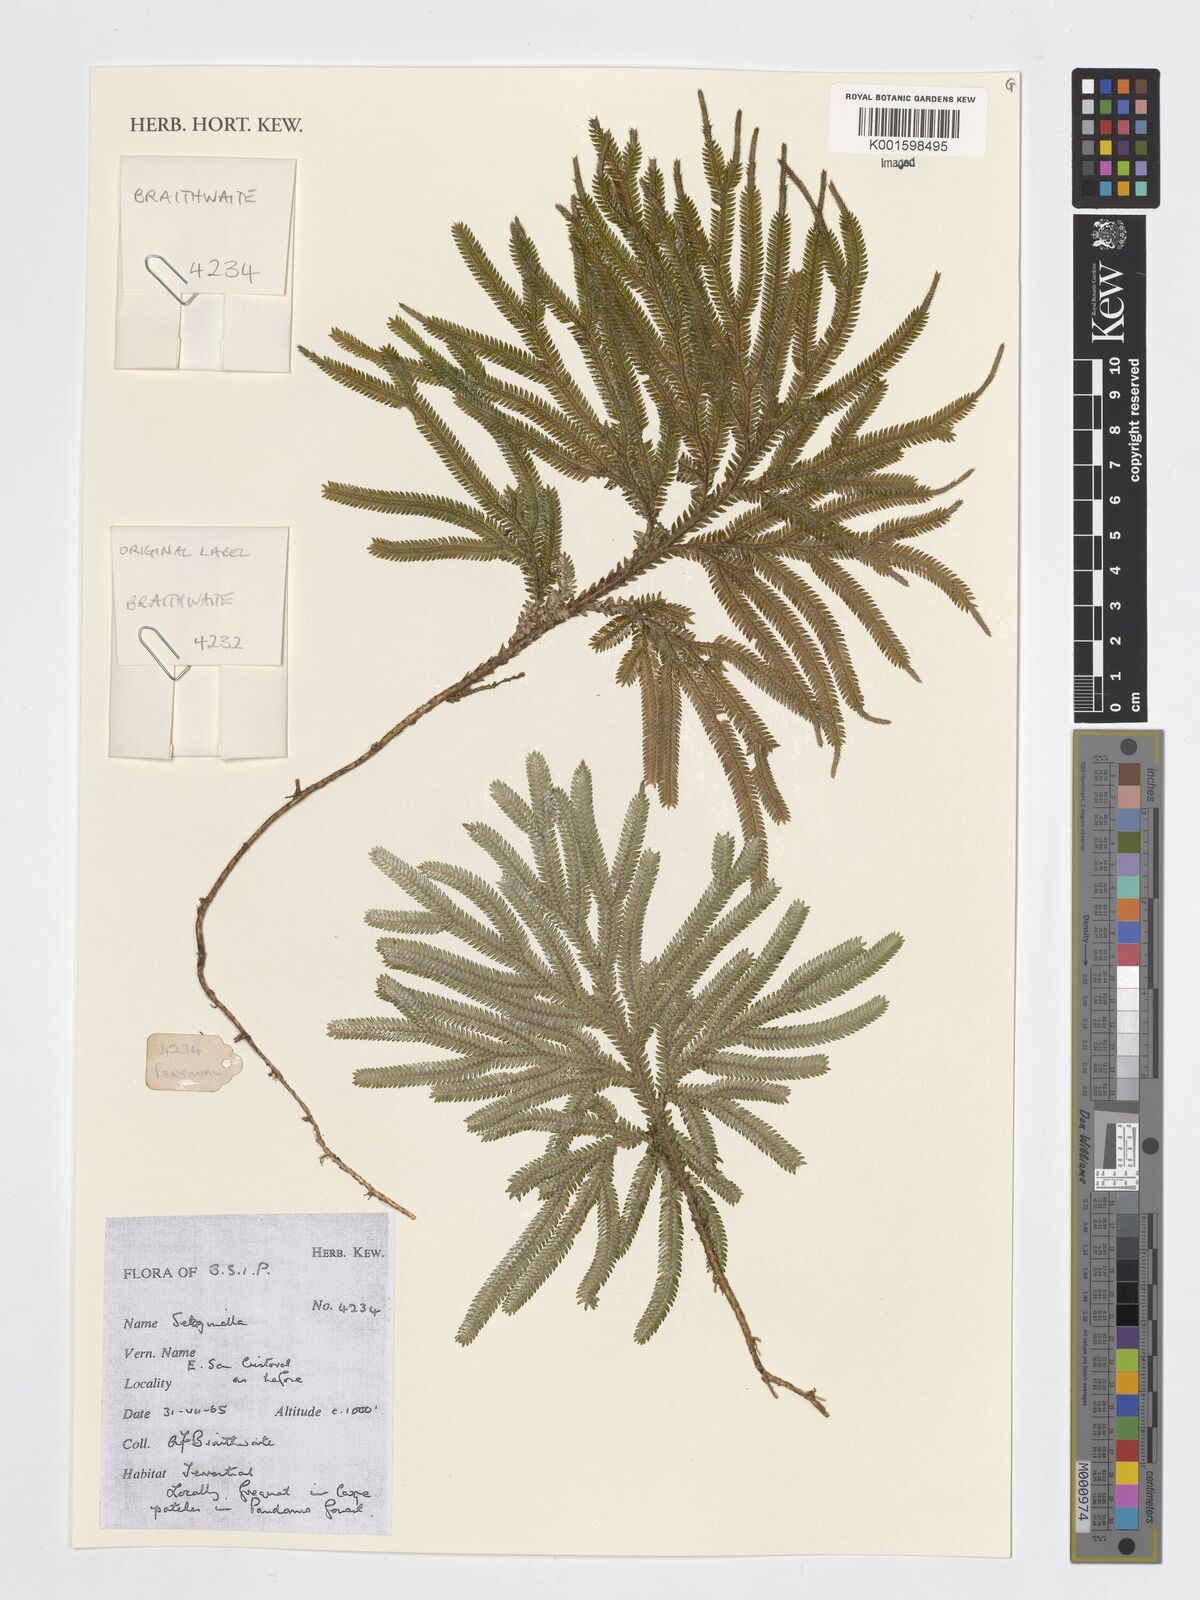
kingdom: Plantae
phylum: Tracheophyta
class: Lycopodiopsida
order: Selaginellales
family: Selaginellaceae
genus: Selaginella
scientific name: Selaginella
